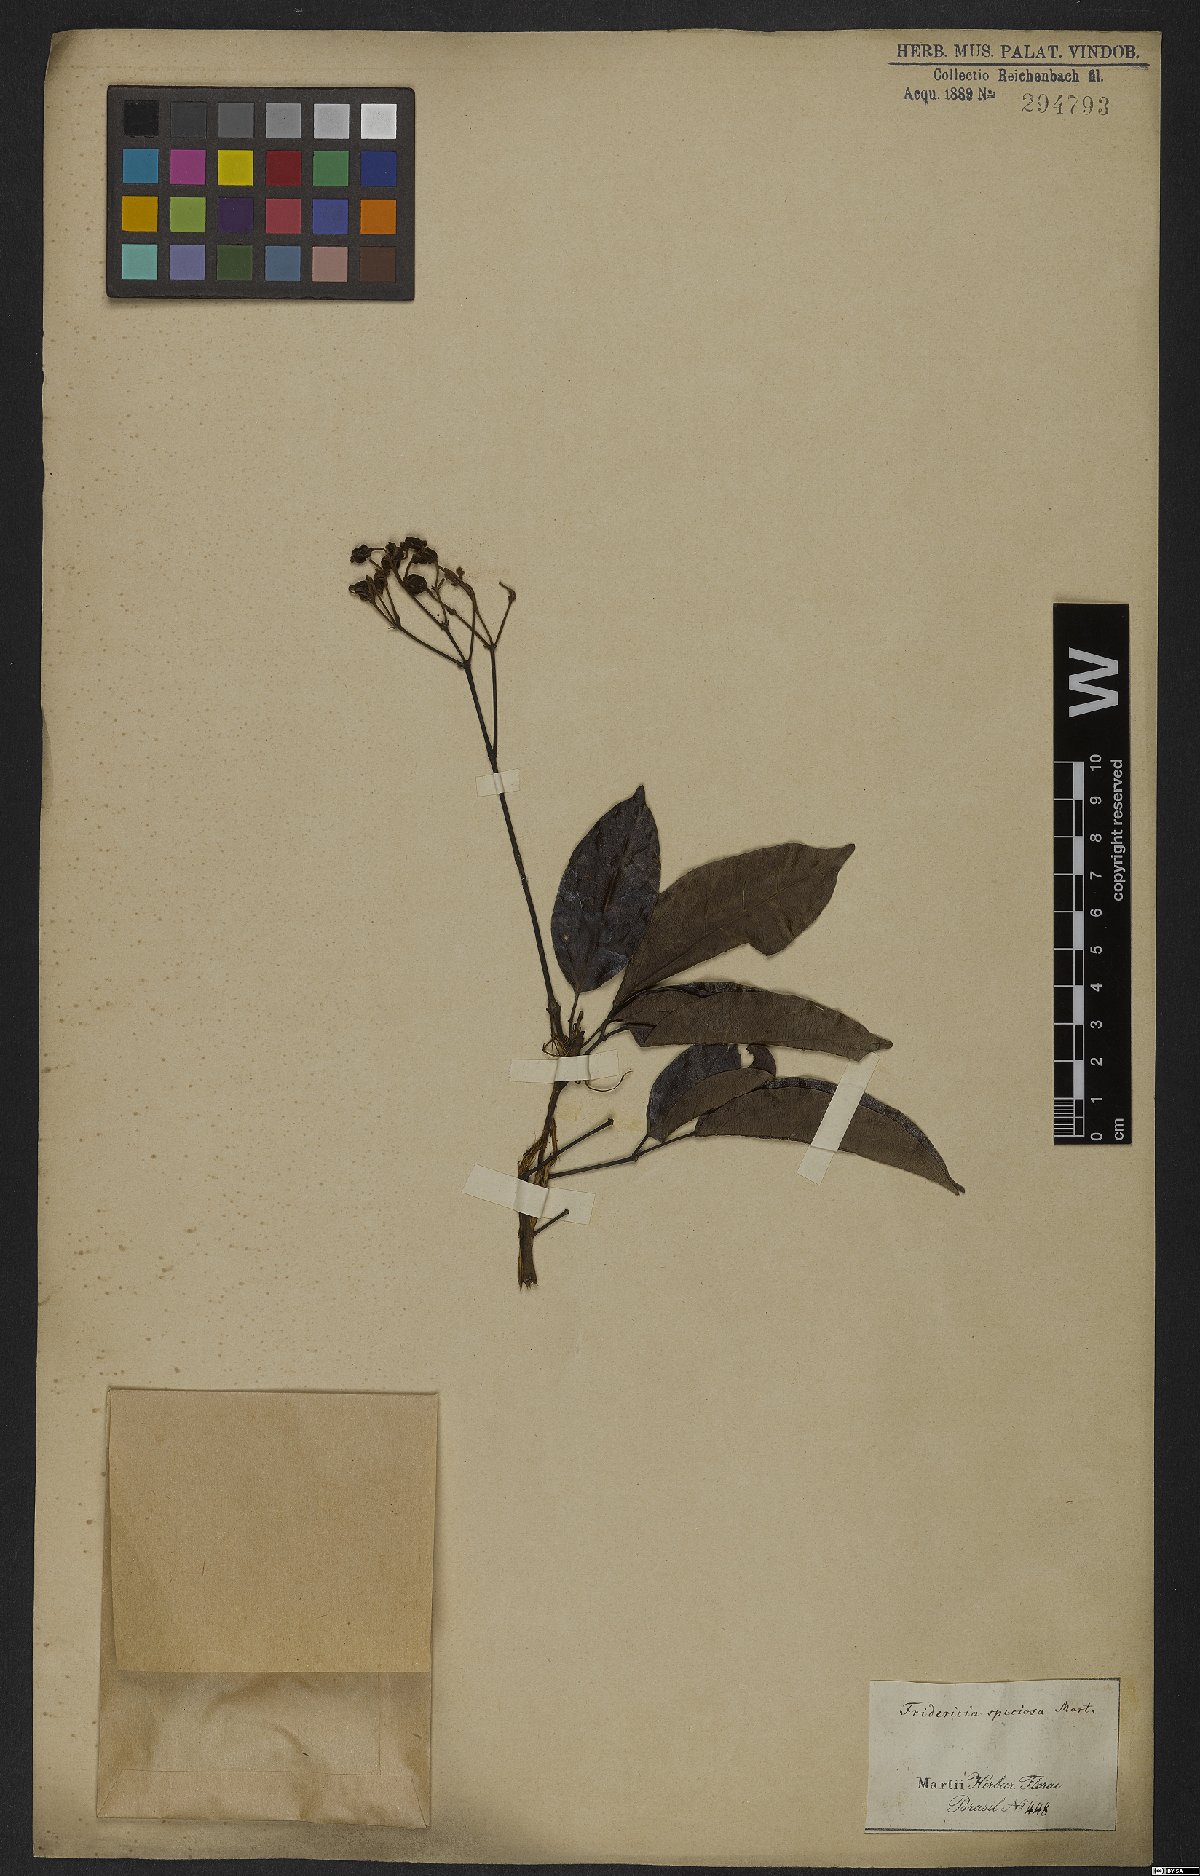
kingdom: Plantae
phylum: Tracheophyta
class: Magnoliopsida
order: Lamiales
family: Bignoniaceae
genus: Fridericia
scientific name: Fridericia speciosa
